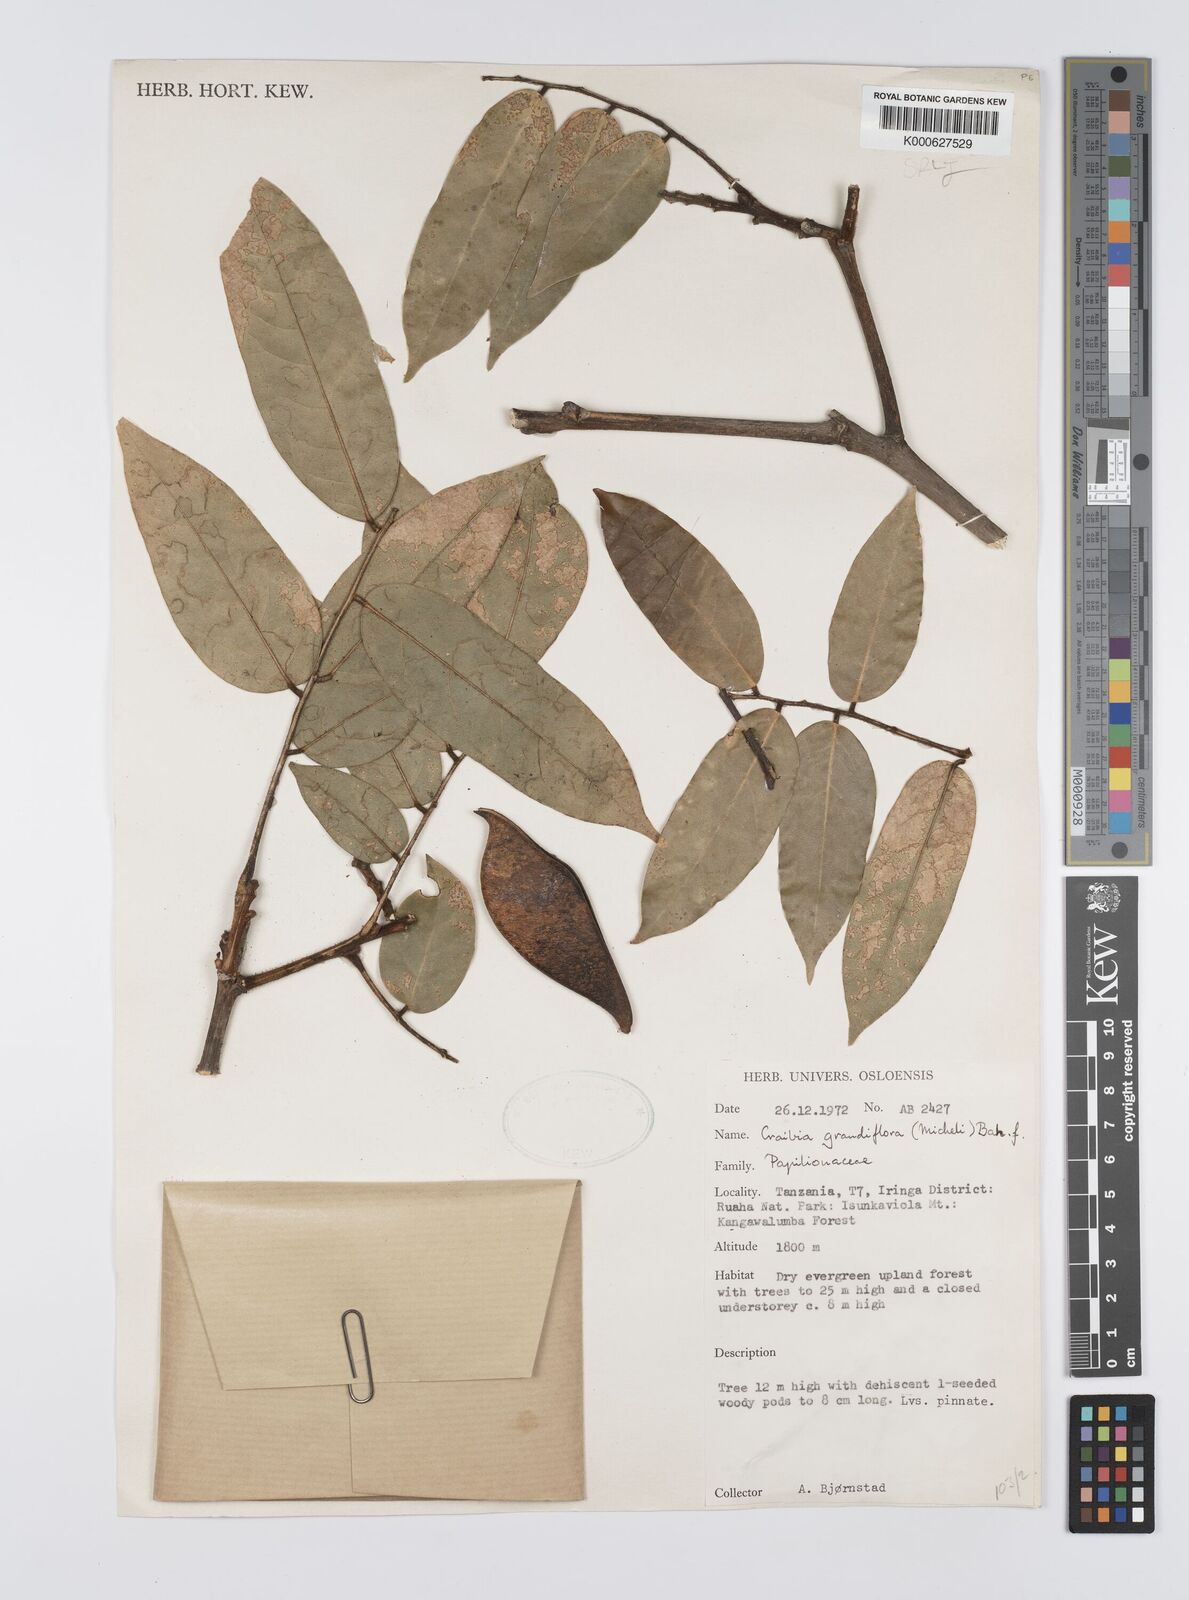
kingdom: Plantae
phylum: Tracheophyta
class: Magnoliopsida
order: Fabales
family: Fabaceae
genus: Craibia
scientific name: Craibia grandiflora
